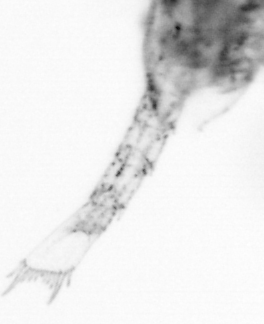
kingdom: Animalia
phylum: Arthropoda
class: Copepoda
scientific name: Copepoda
